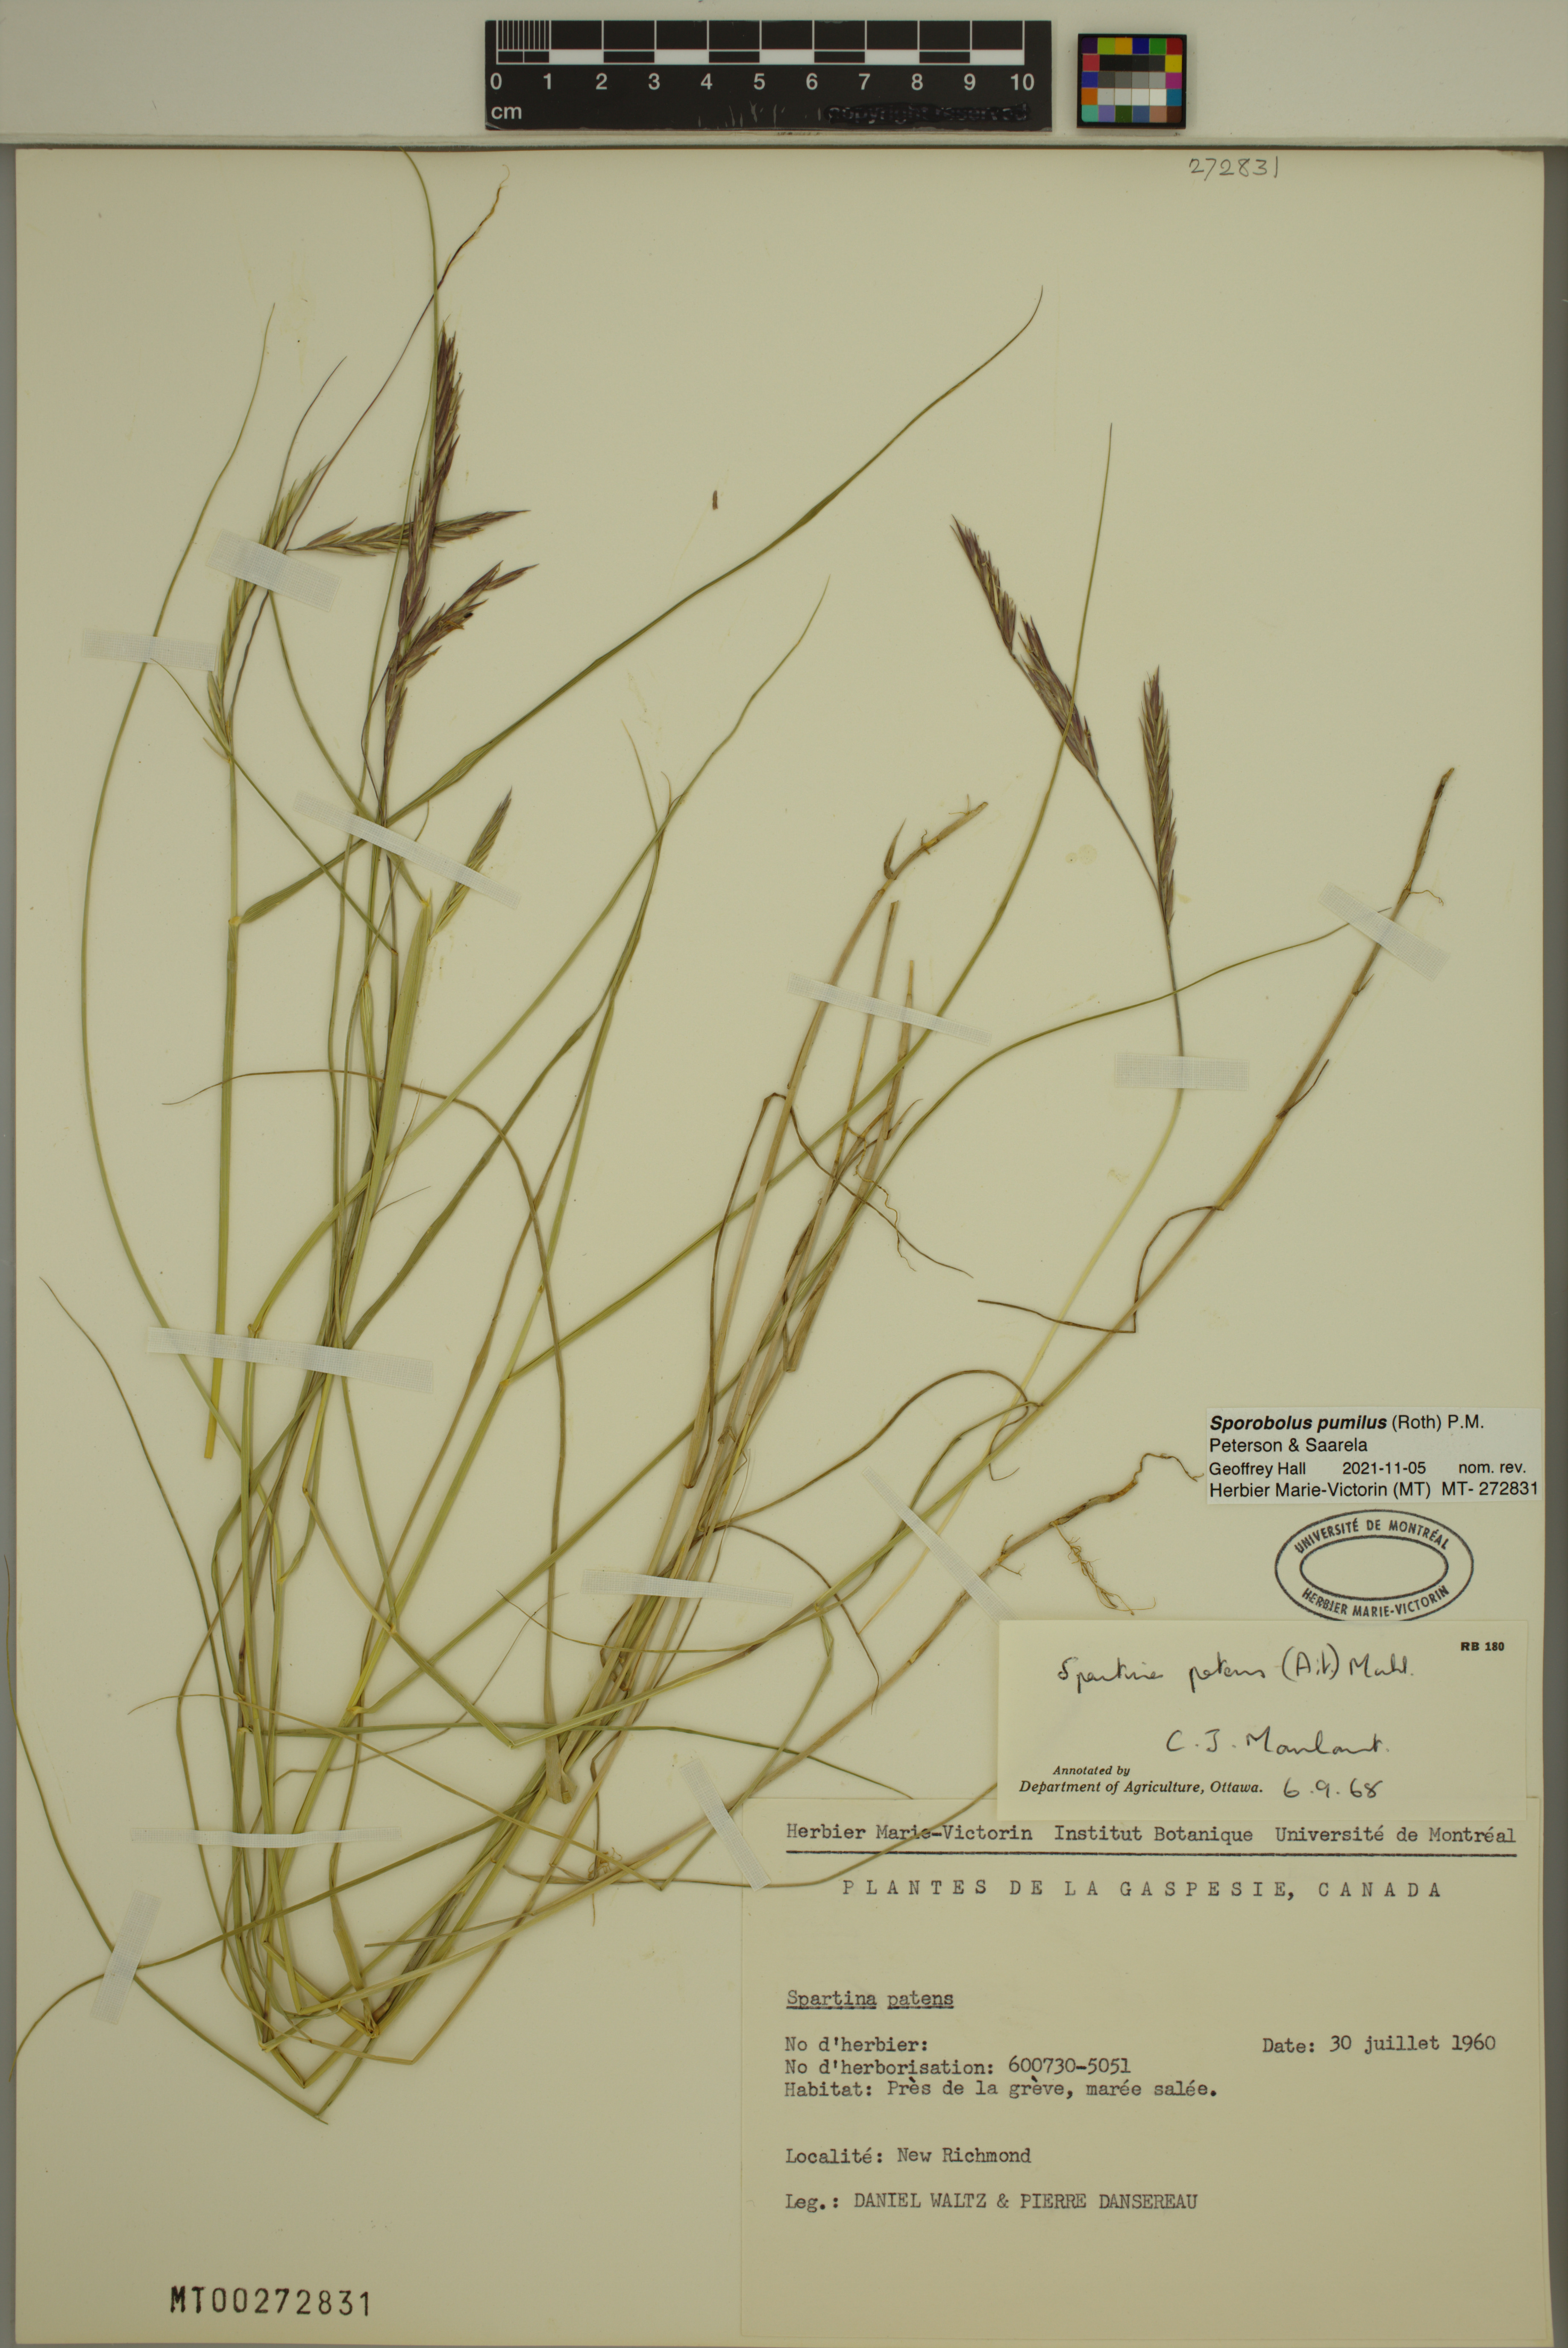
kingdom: Plantae
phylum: Tracheophyta
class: Liliopsida
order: Poales
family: Poaceae
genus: Sporobolus
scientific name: Sporobolus pumilus
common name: Highwater grass
